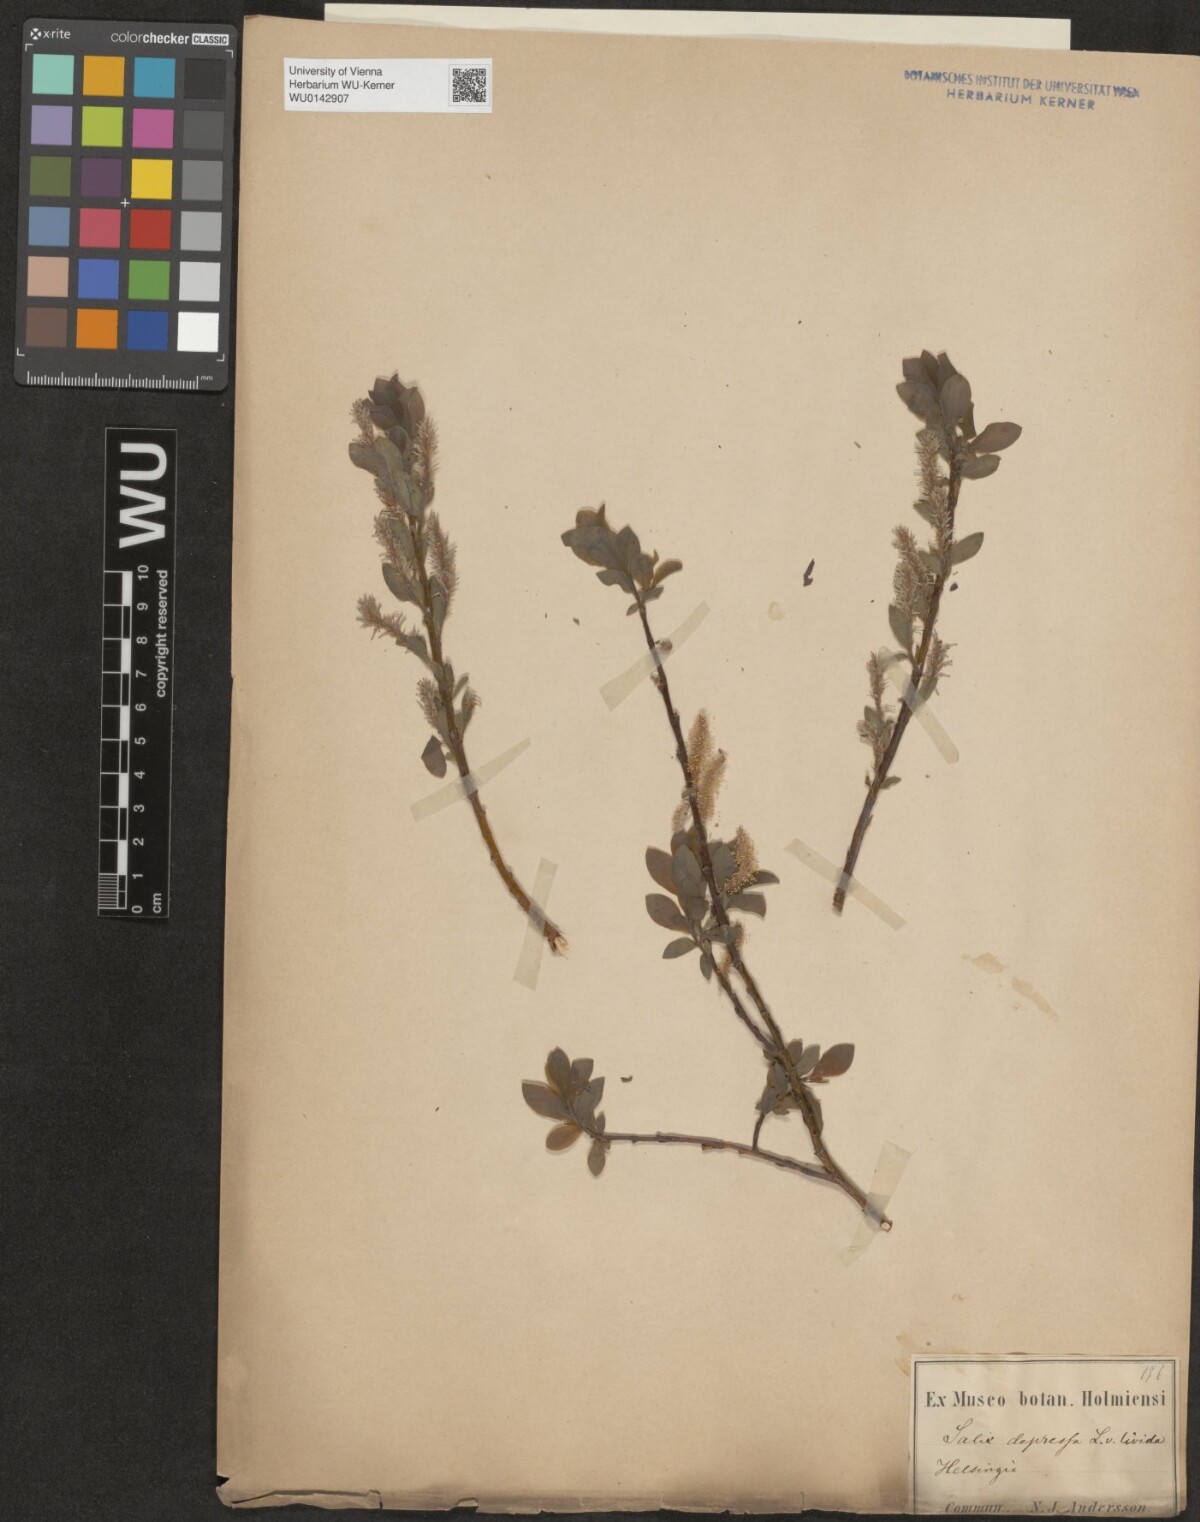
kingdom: Plantae
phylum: Tracheophyta
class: Magnoliopsida
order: Malpighiales
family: Salicaceae
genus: Salix
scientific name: Salix starkeana
